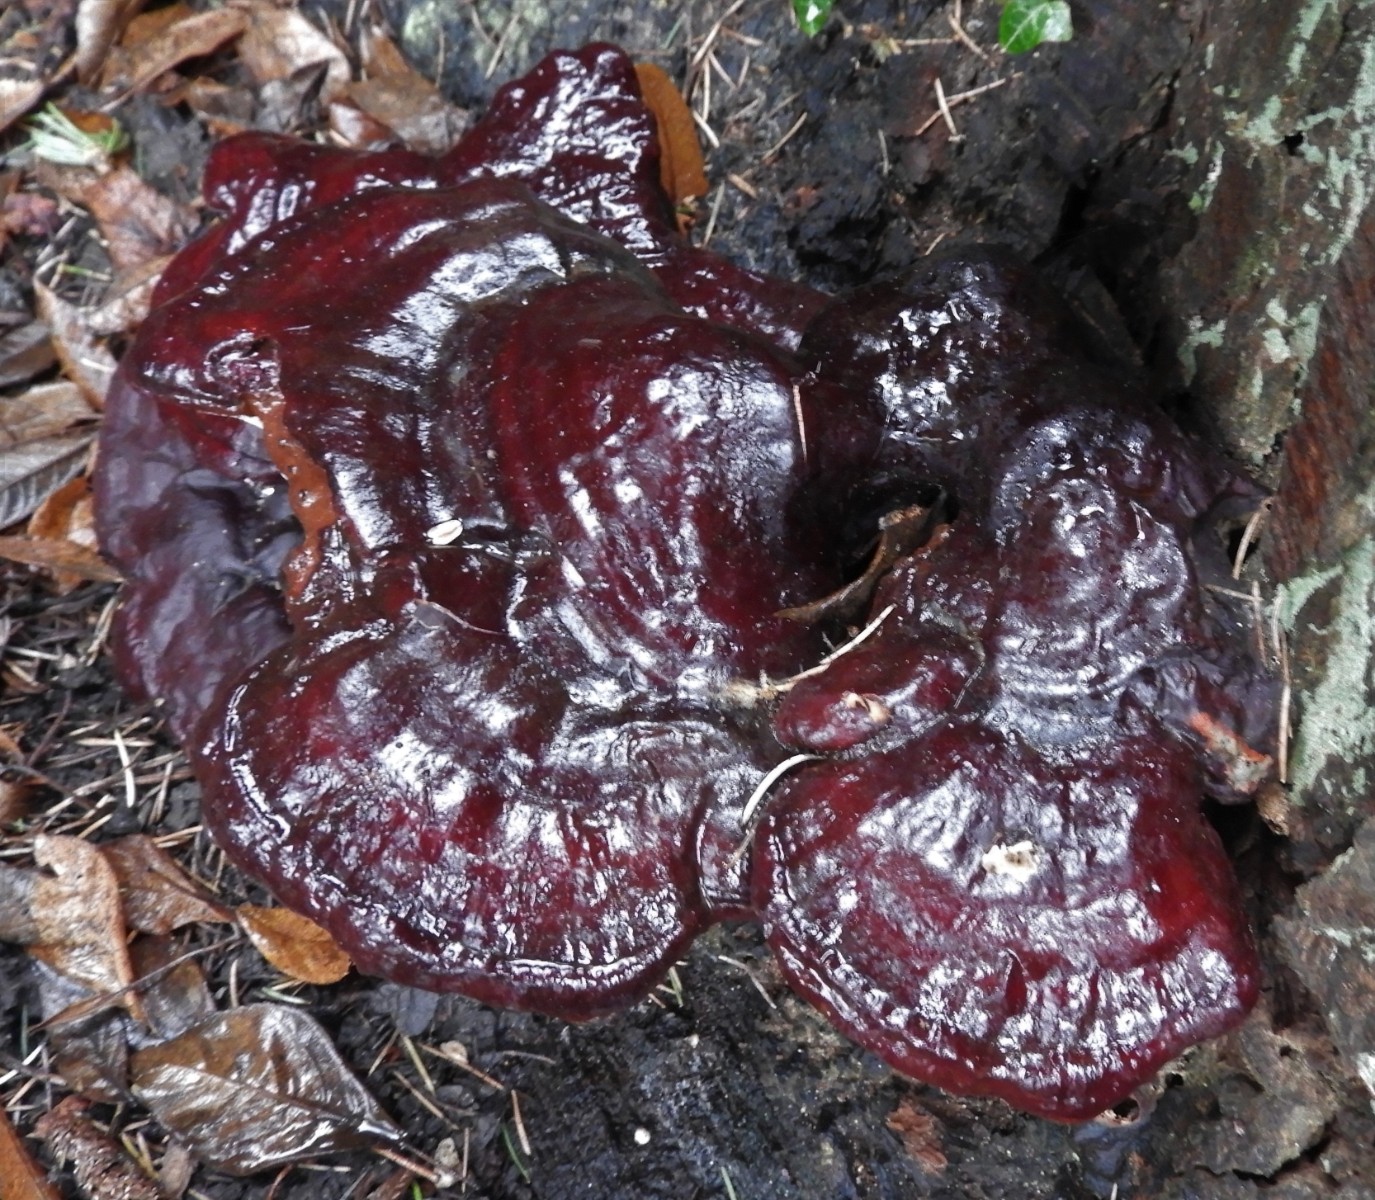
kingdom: Fungi
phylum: Basidiomycota
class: Agaricomycetes
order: Polyporales
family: Polyporaceae
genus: Ganoderma
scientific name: Ganoderma lucidum
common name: skinnende lakporesvamp
